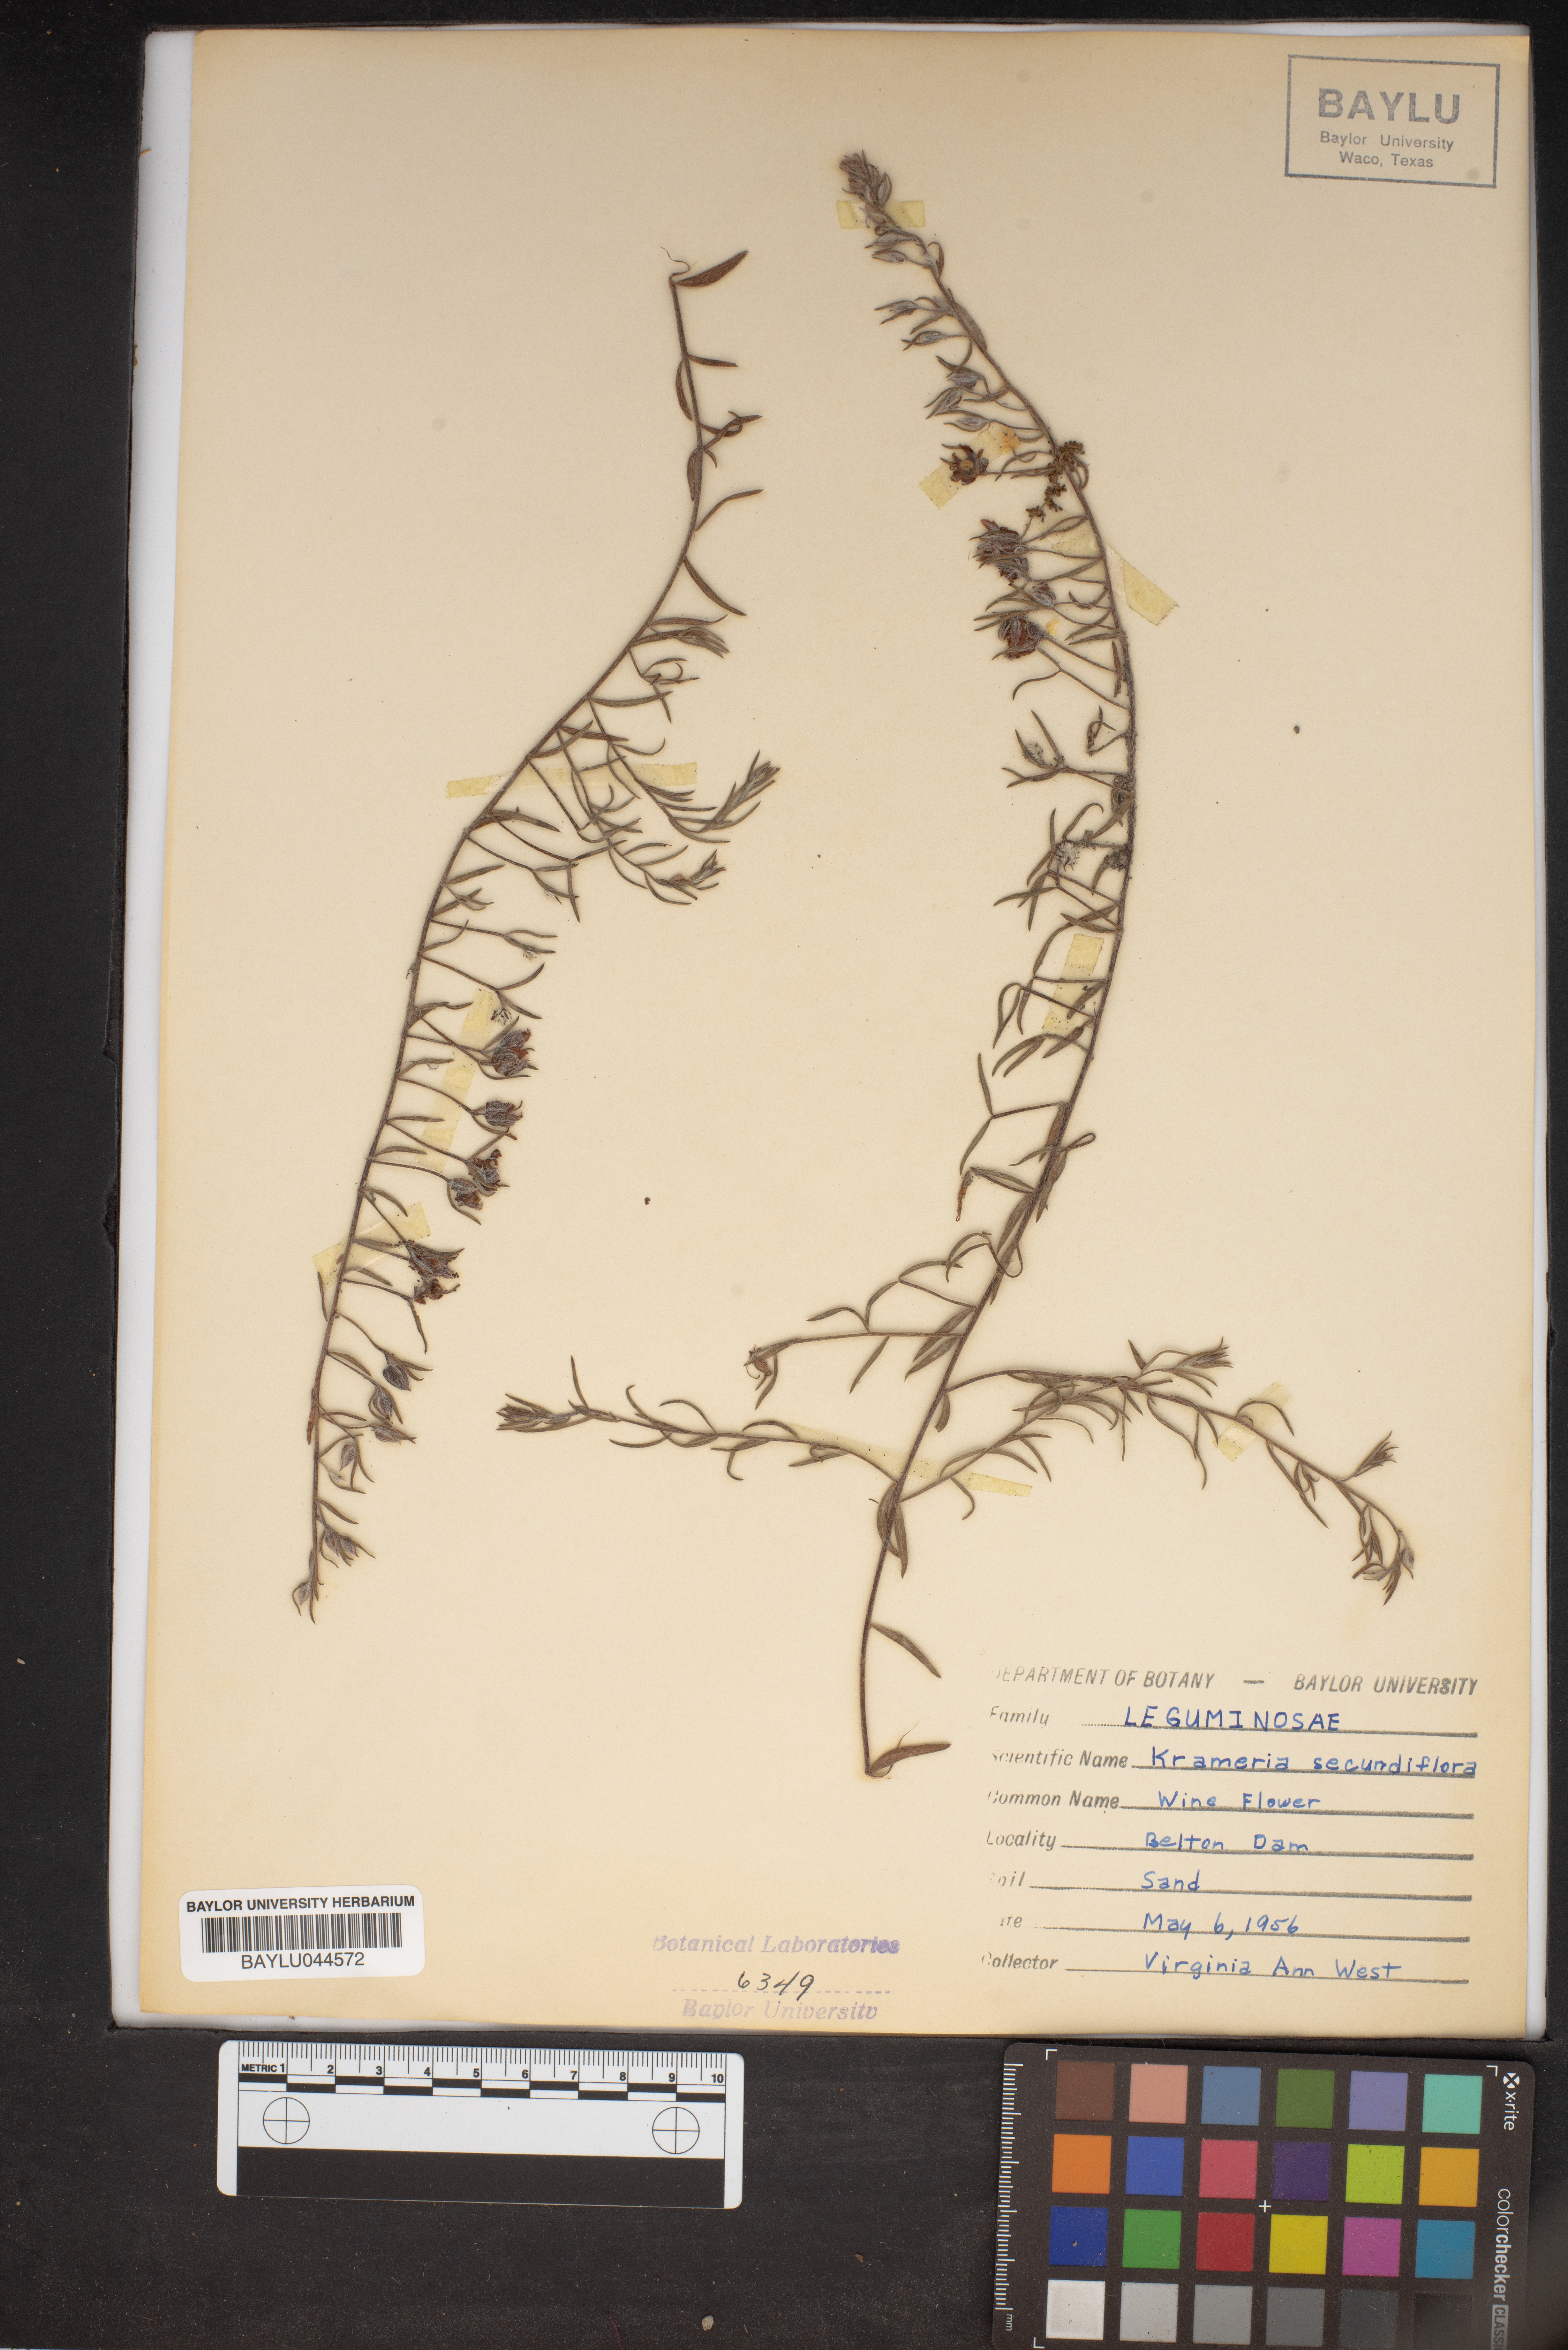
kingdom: Plantae
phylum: Tracheophyta
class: Magnoliopsida
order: Zygophyllales
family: Krameriaceae
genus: Krameria
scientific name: Krameria secundiflora
